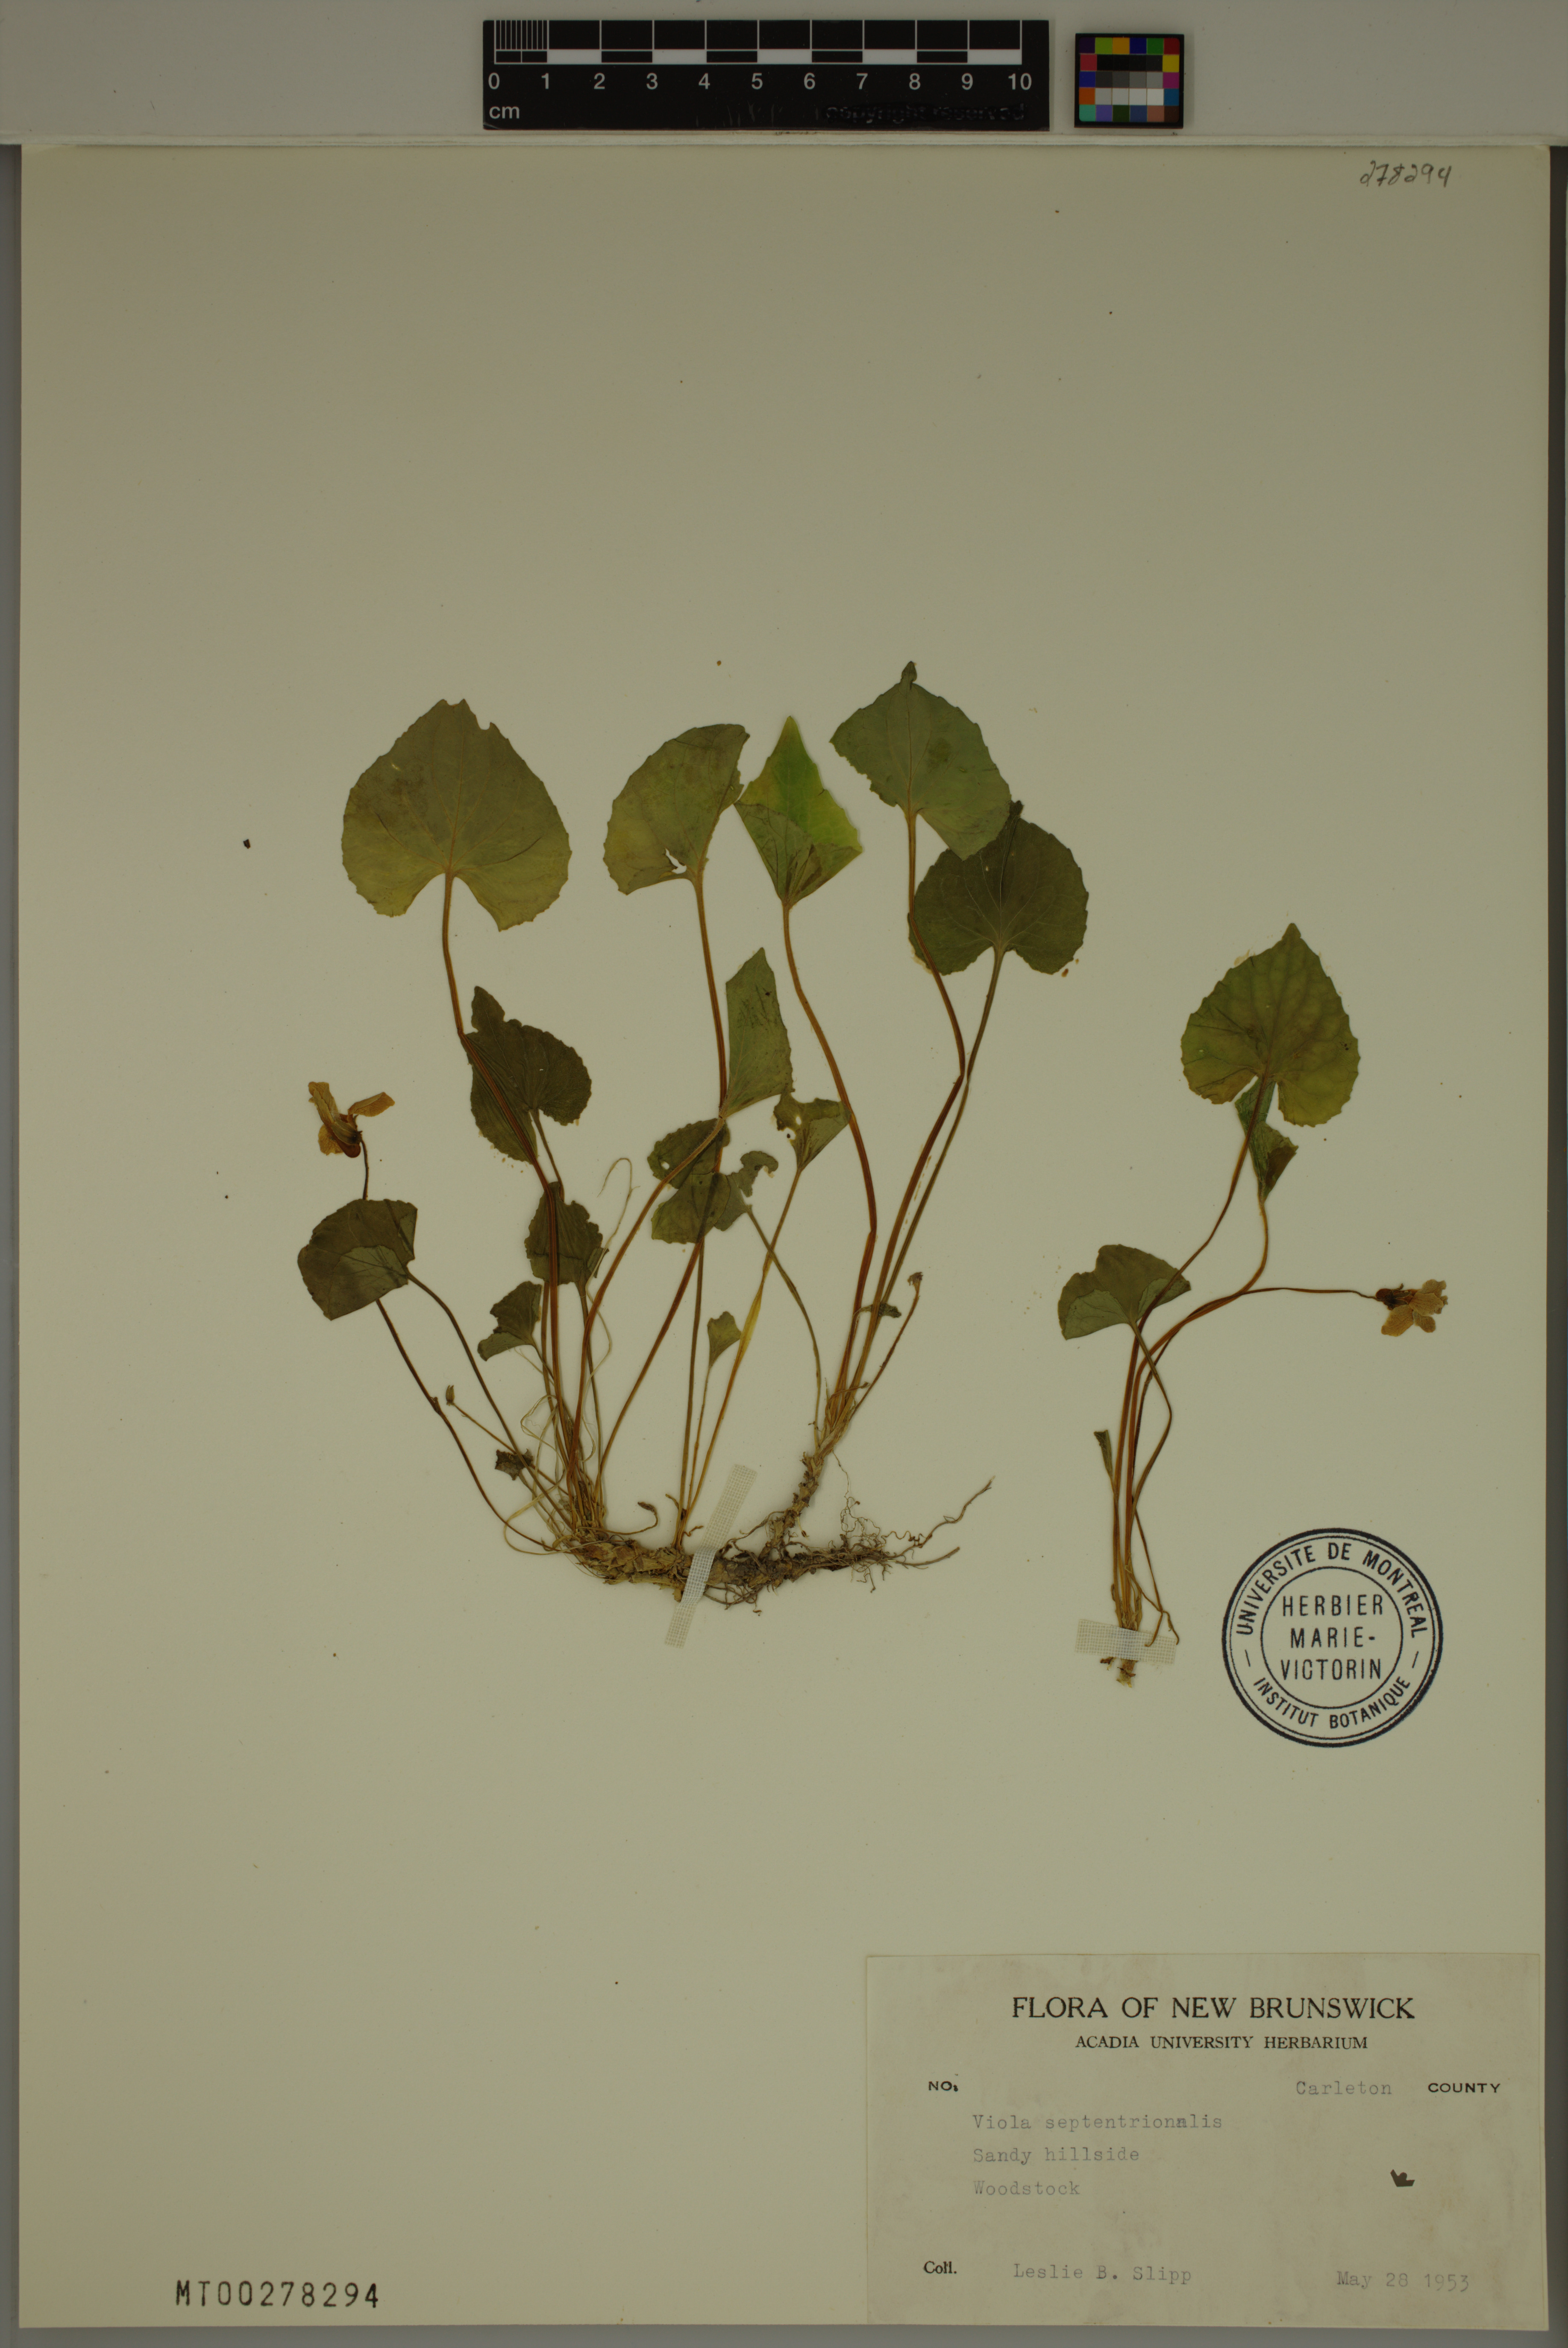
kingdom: Plantae
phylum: Tracheophyta
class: Magnoliopsida
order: Malpighiales
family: Violaceae
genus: Viola
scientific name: Viola septentrionalis
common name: Northern woodland violet
